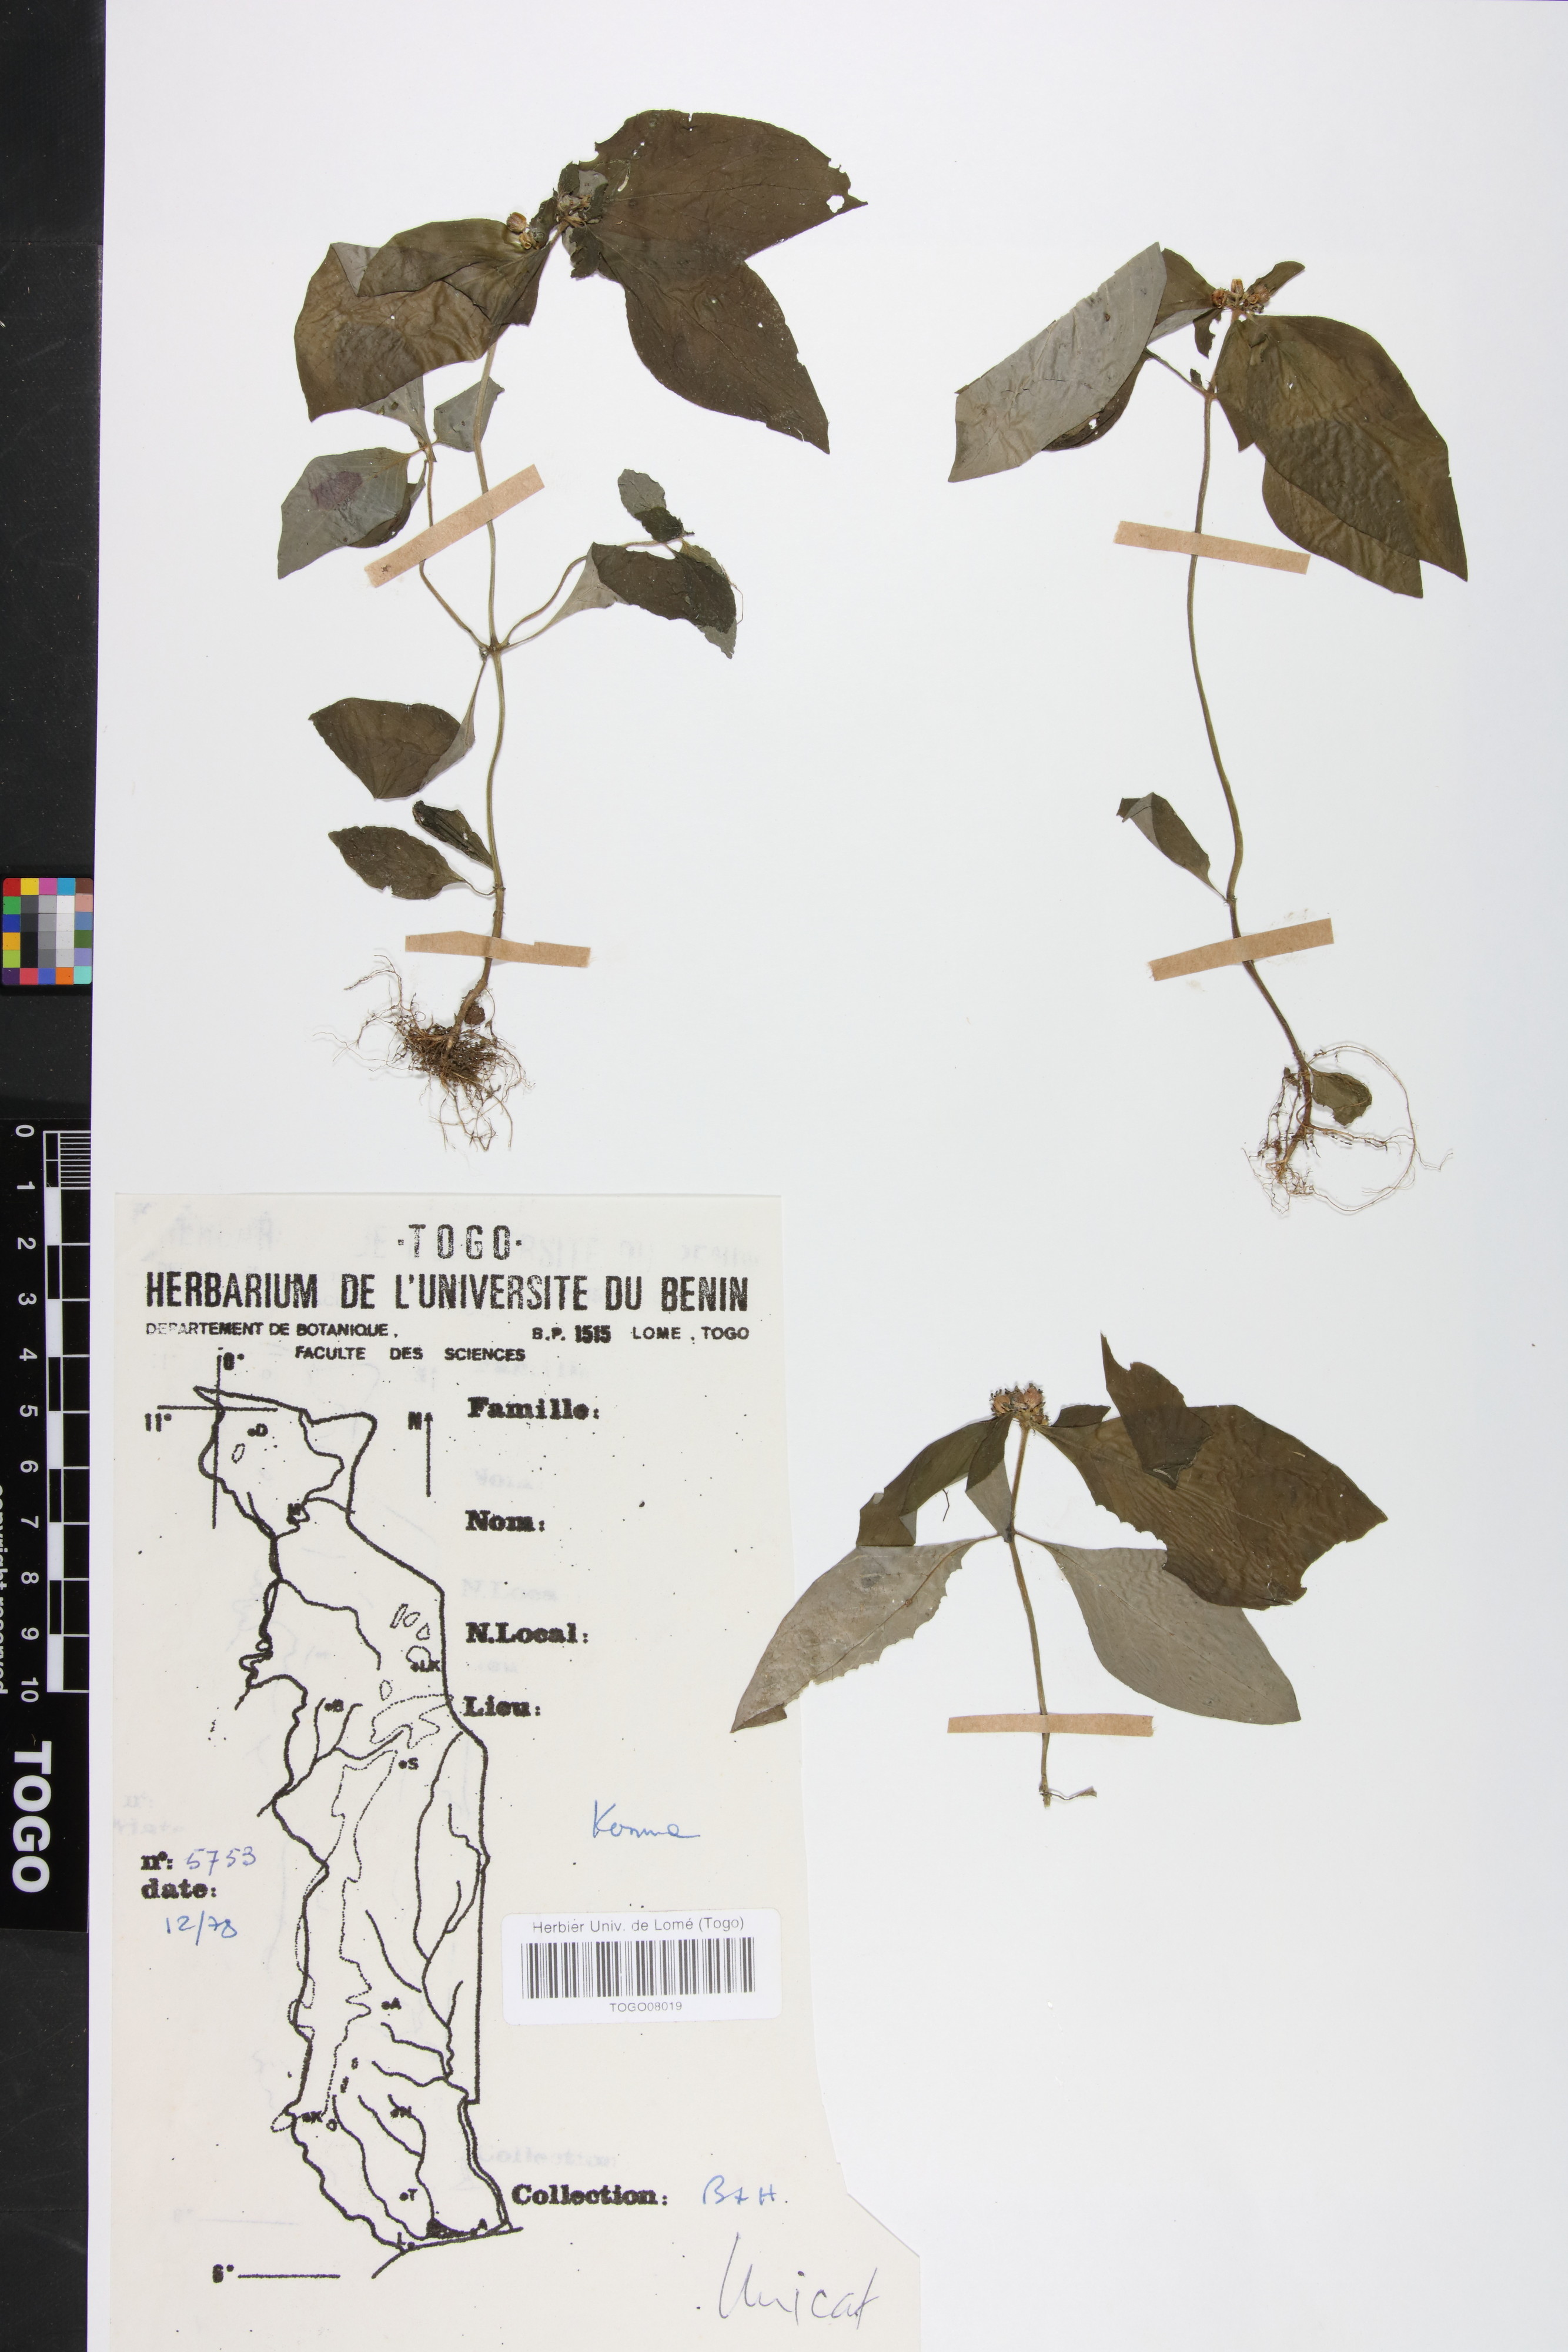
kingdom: Plantae
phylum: Tracheophyta
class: Magnoliopsida
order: Gentianales
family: Rubiaceae
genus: Virectaria
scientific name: Virectaria procumbens
